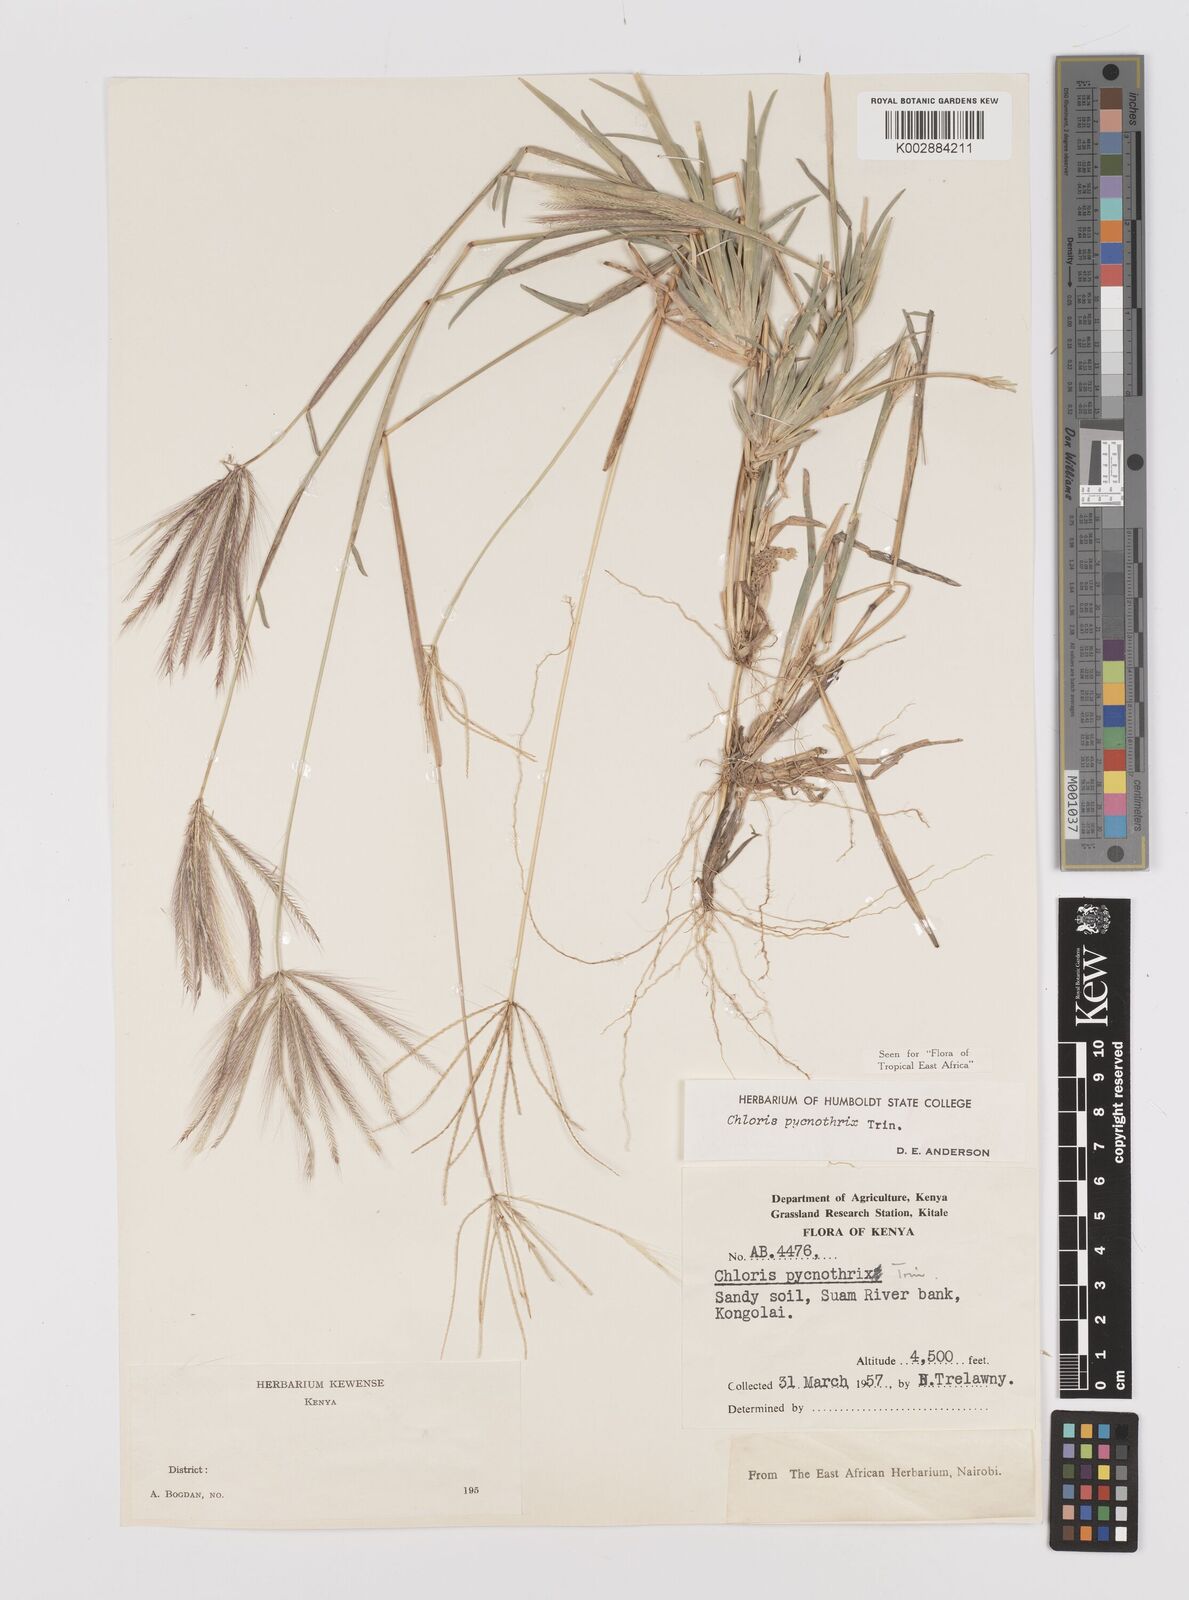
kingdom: Plantae
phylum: Tracheophyta
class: Liliopsida
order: Poales
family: Poaceae
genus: Chloris
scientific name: Chloris pycnothrix
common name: Spiderweb chloris
